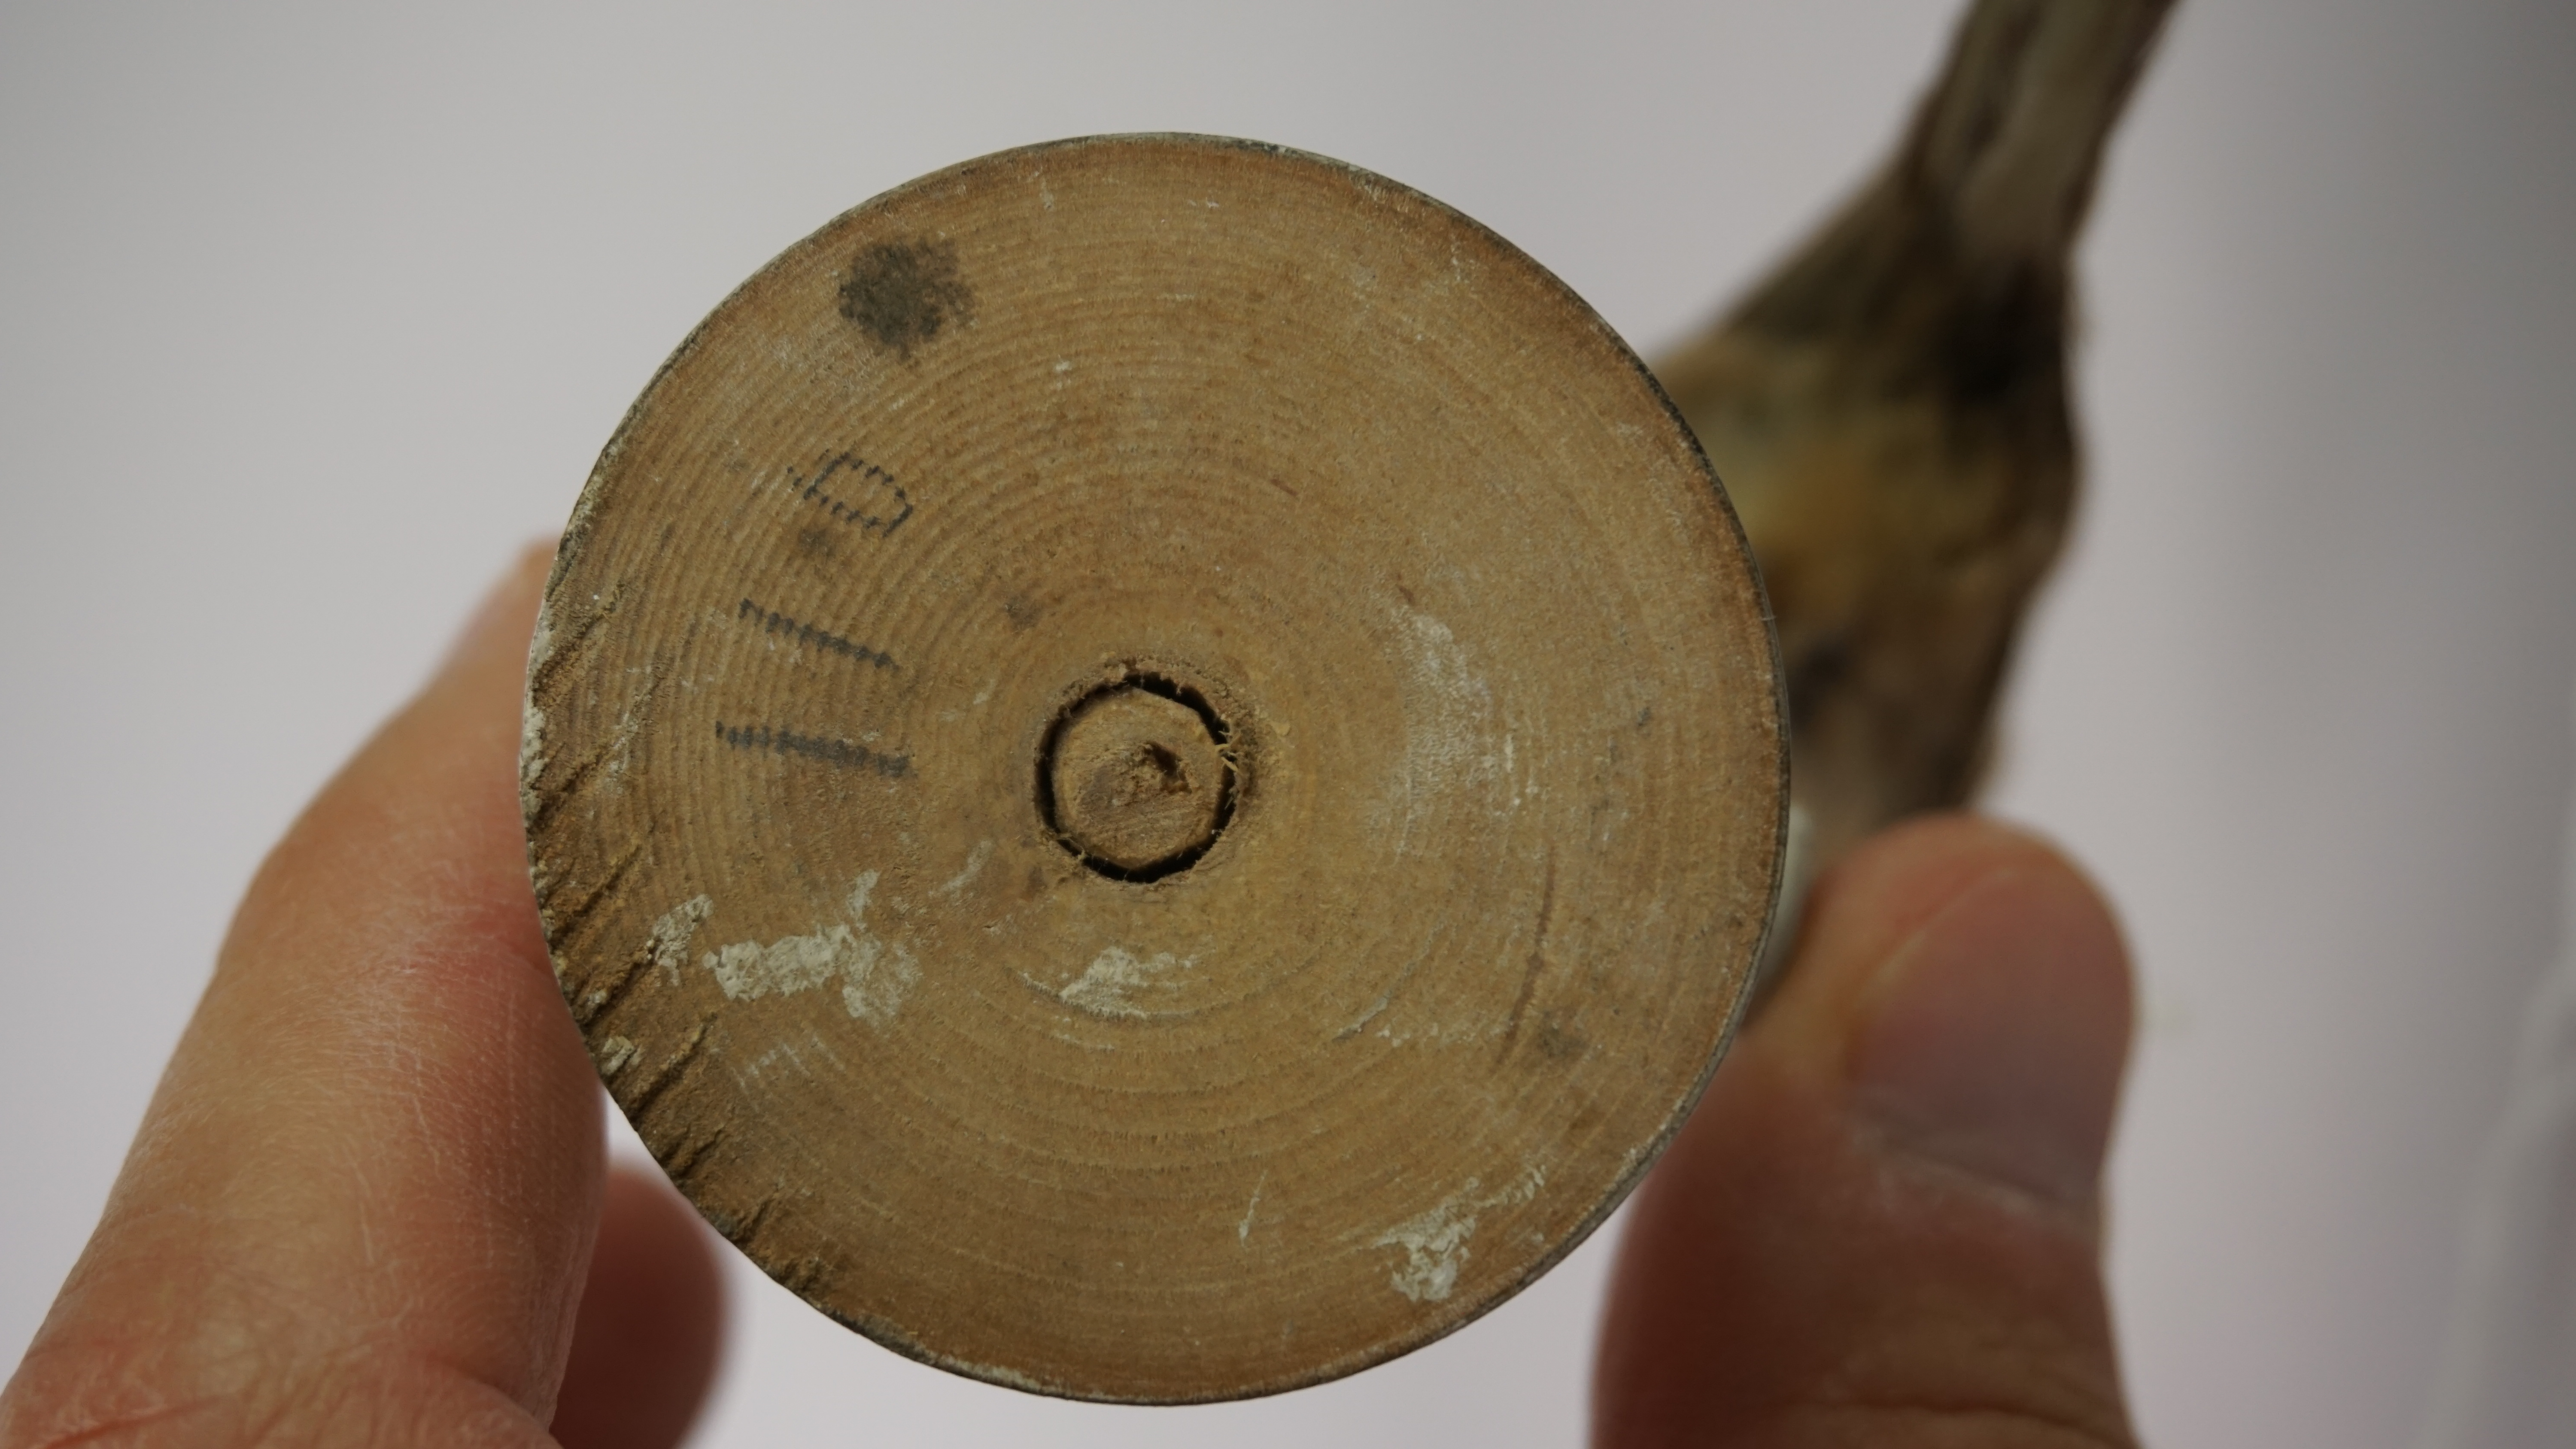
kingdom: Animalia
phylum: Chordata
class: Aves
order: Passeriformes
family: Sylviidae
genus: Sylvia
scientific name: Sylvia conspicillata
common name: Spectacled warbler
